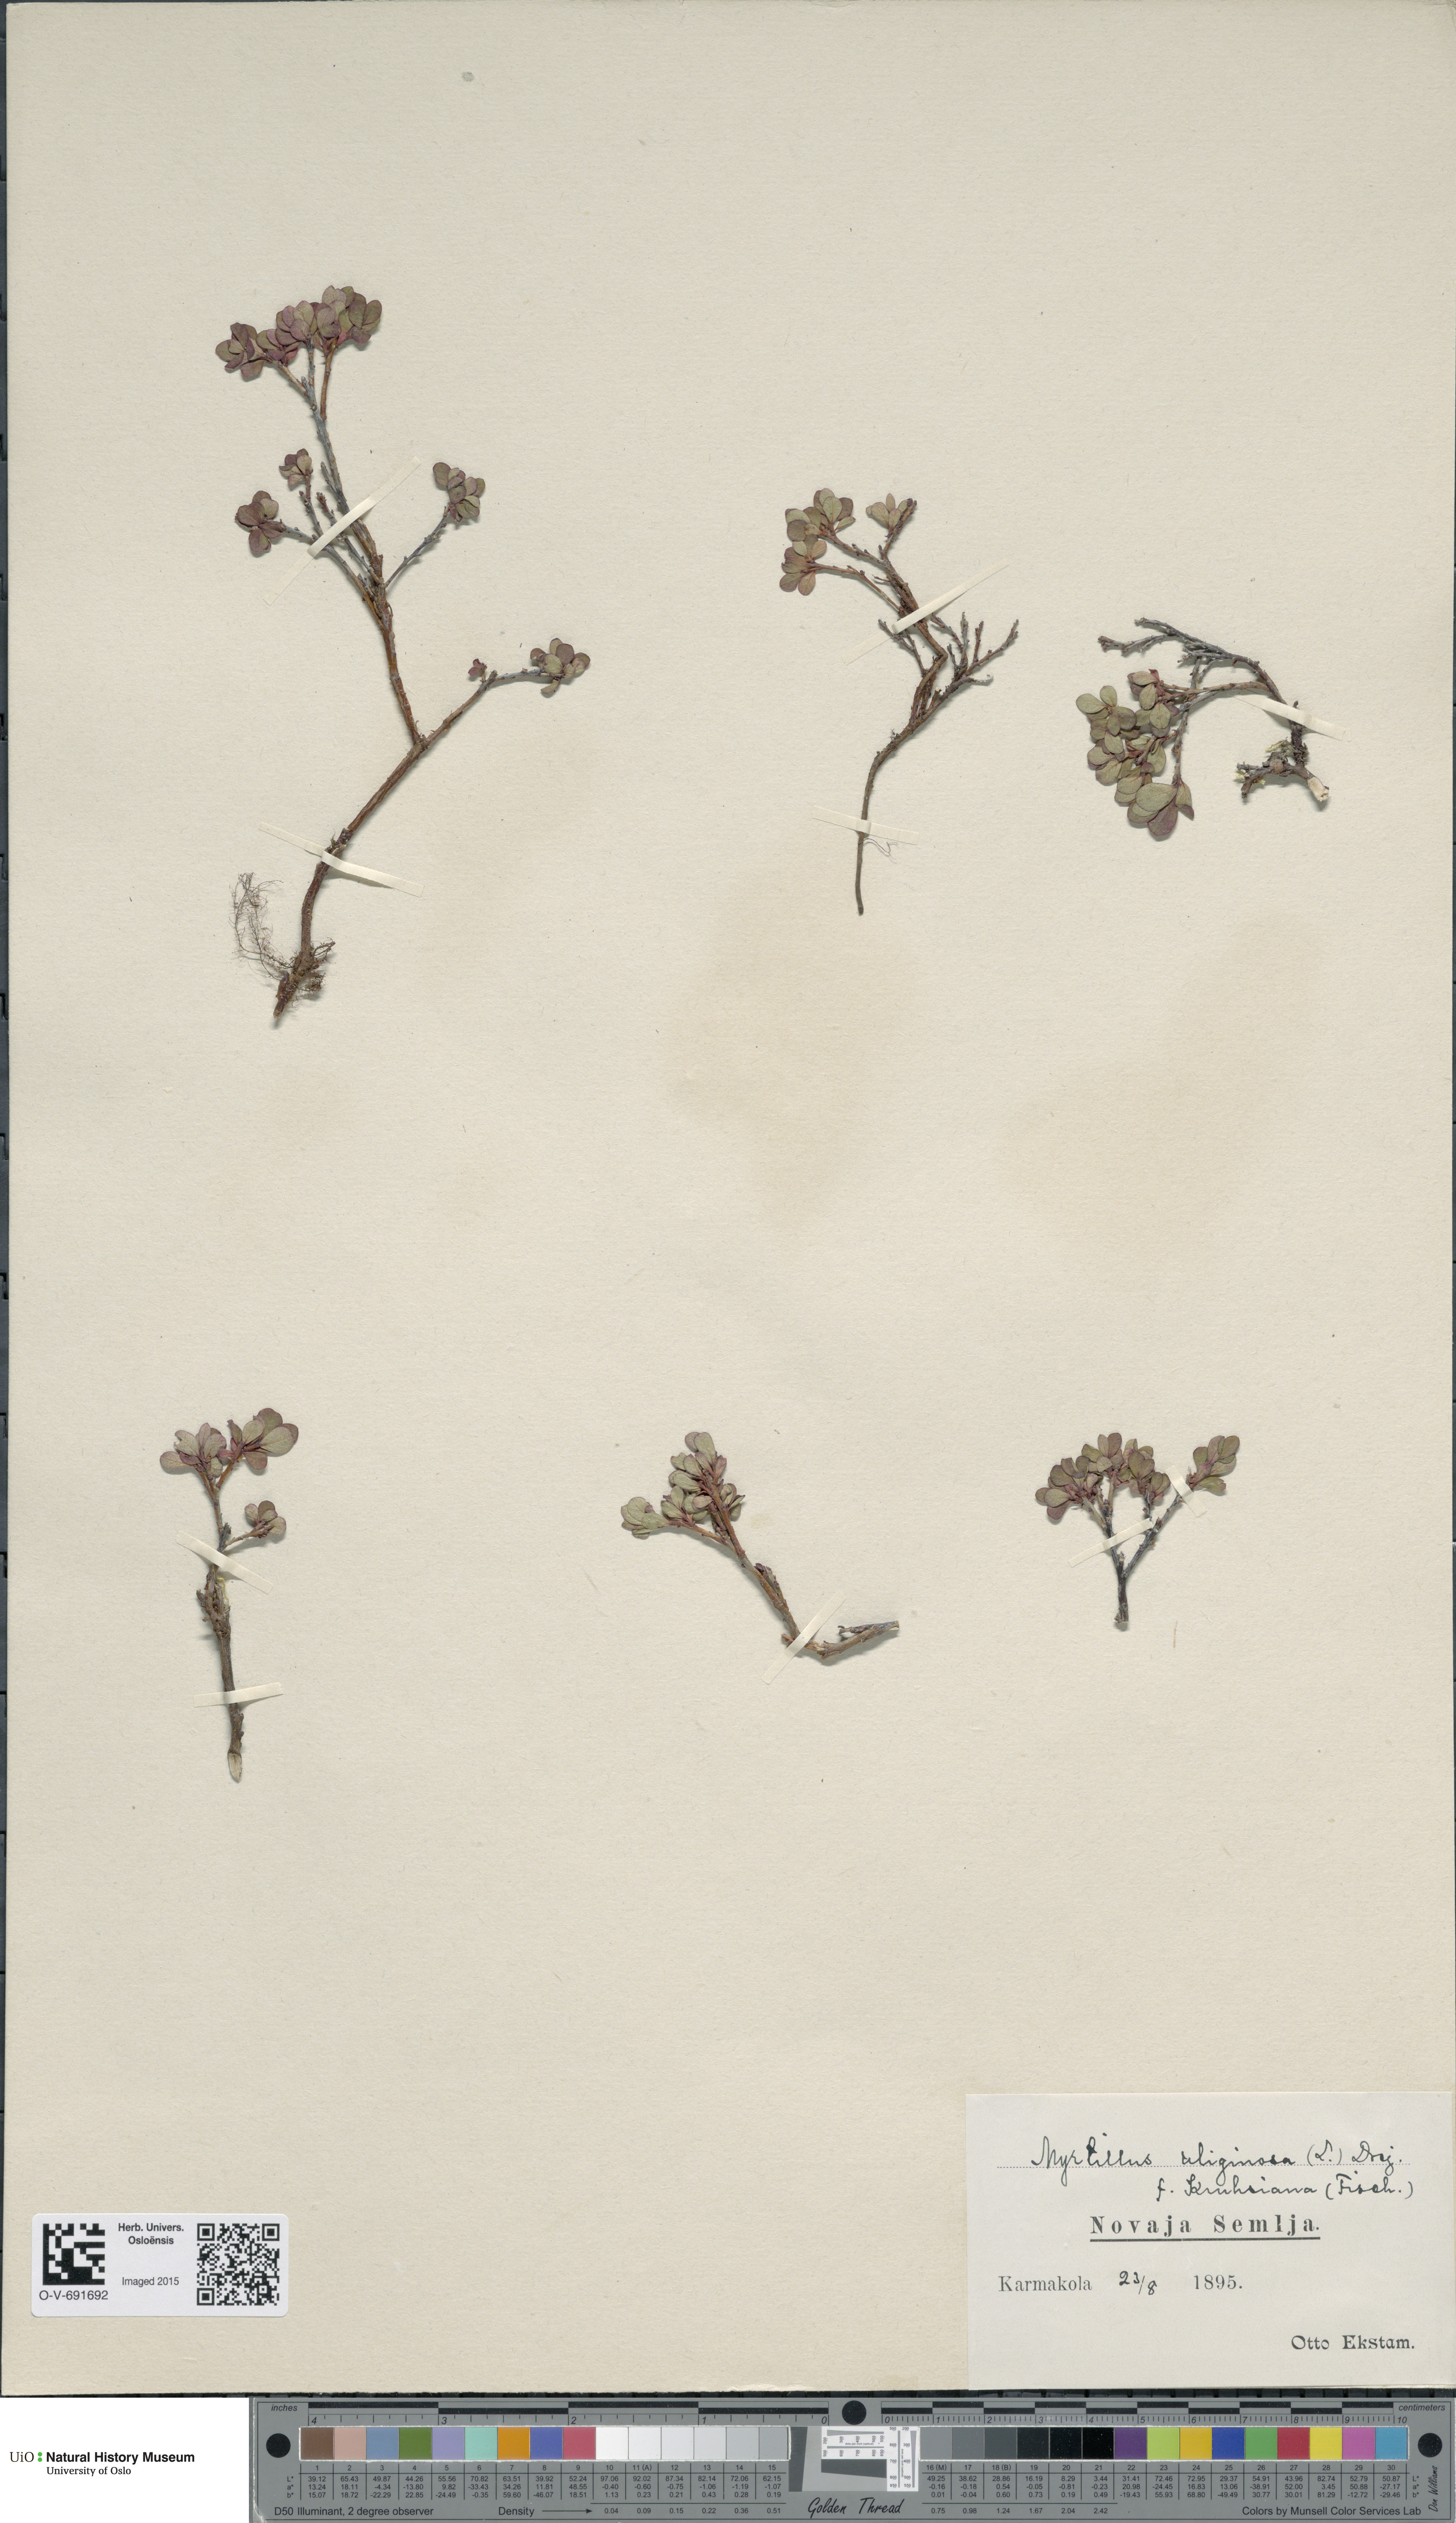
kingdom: Plantae
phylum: Tracheophyta
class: Magnoliopsida
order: Ericales
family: Ericaceae
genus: Vaccinium
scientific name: Vaccinium uliginosum
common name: Bog bilberry
